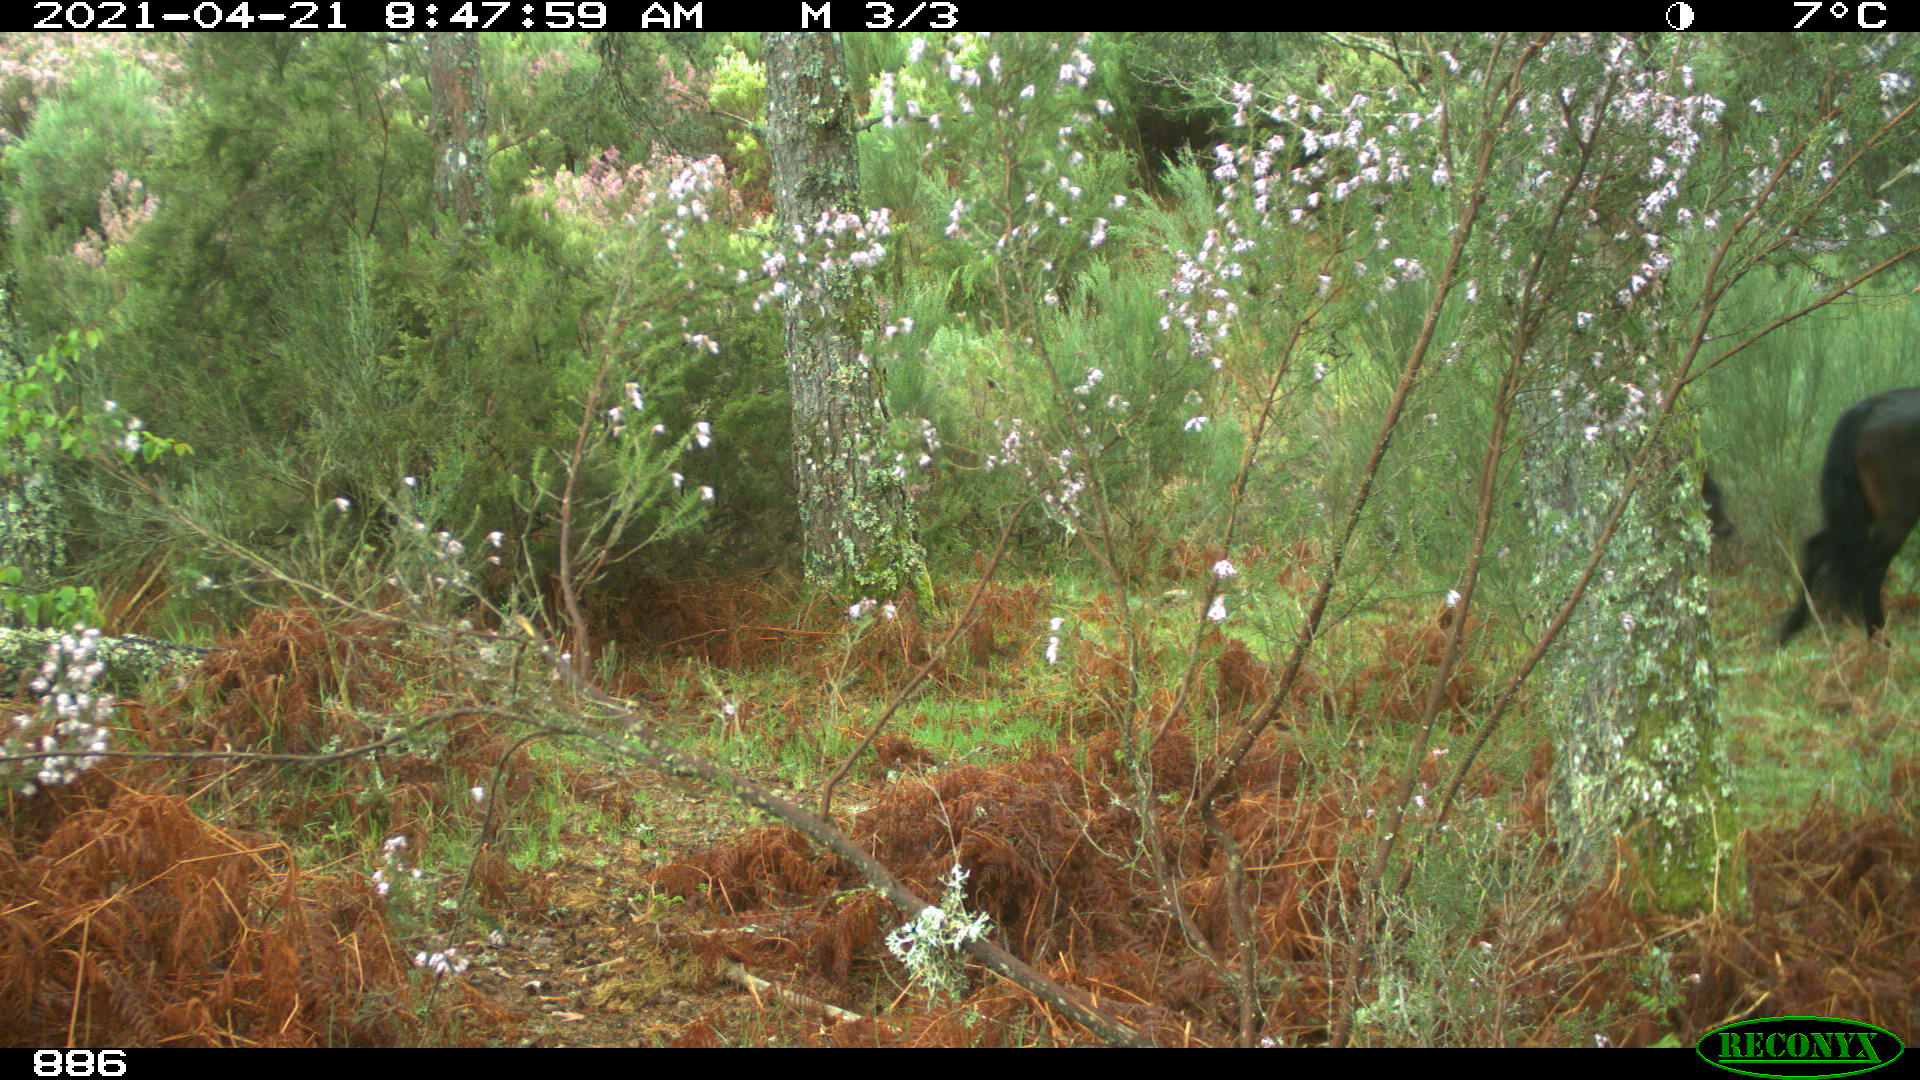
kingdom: Animalia
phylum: Chordata
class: Mammalia
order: Perissodactyla
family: Equidae
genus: Equus
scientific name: Equus caballus
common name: Horse
